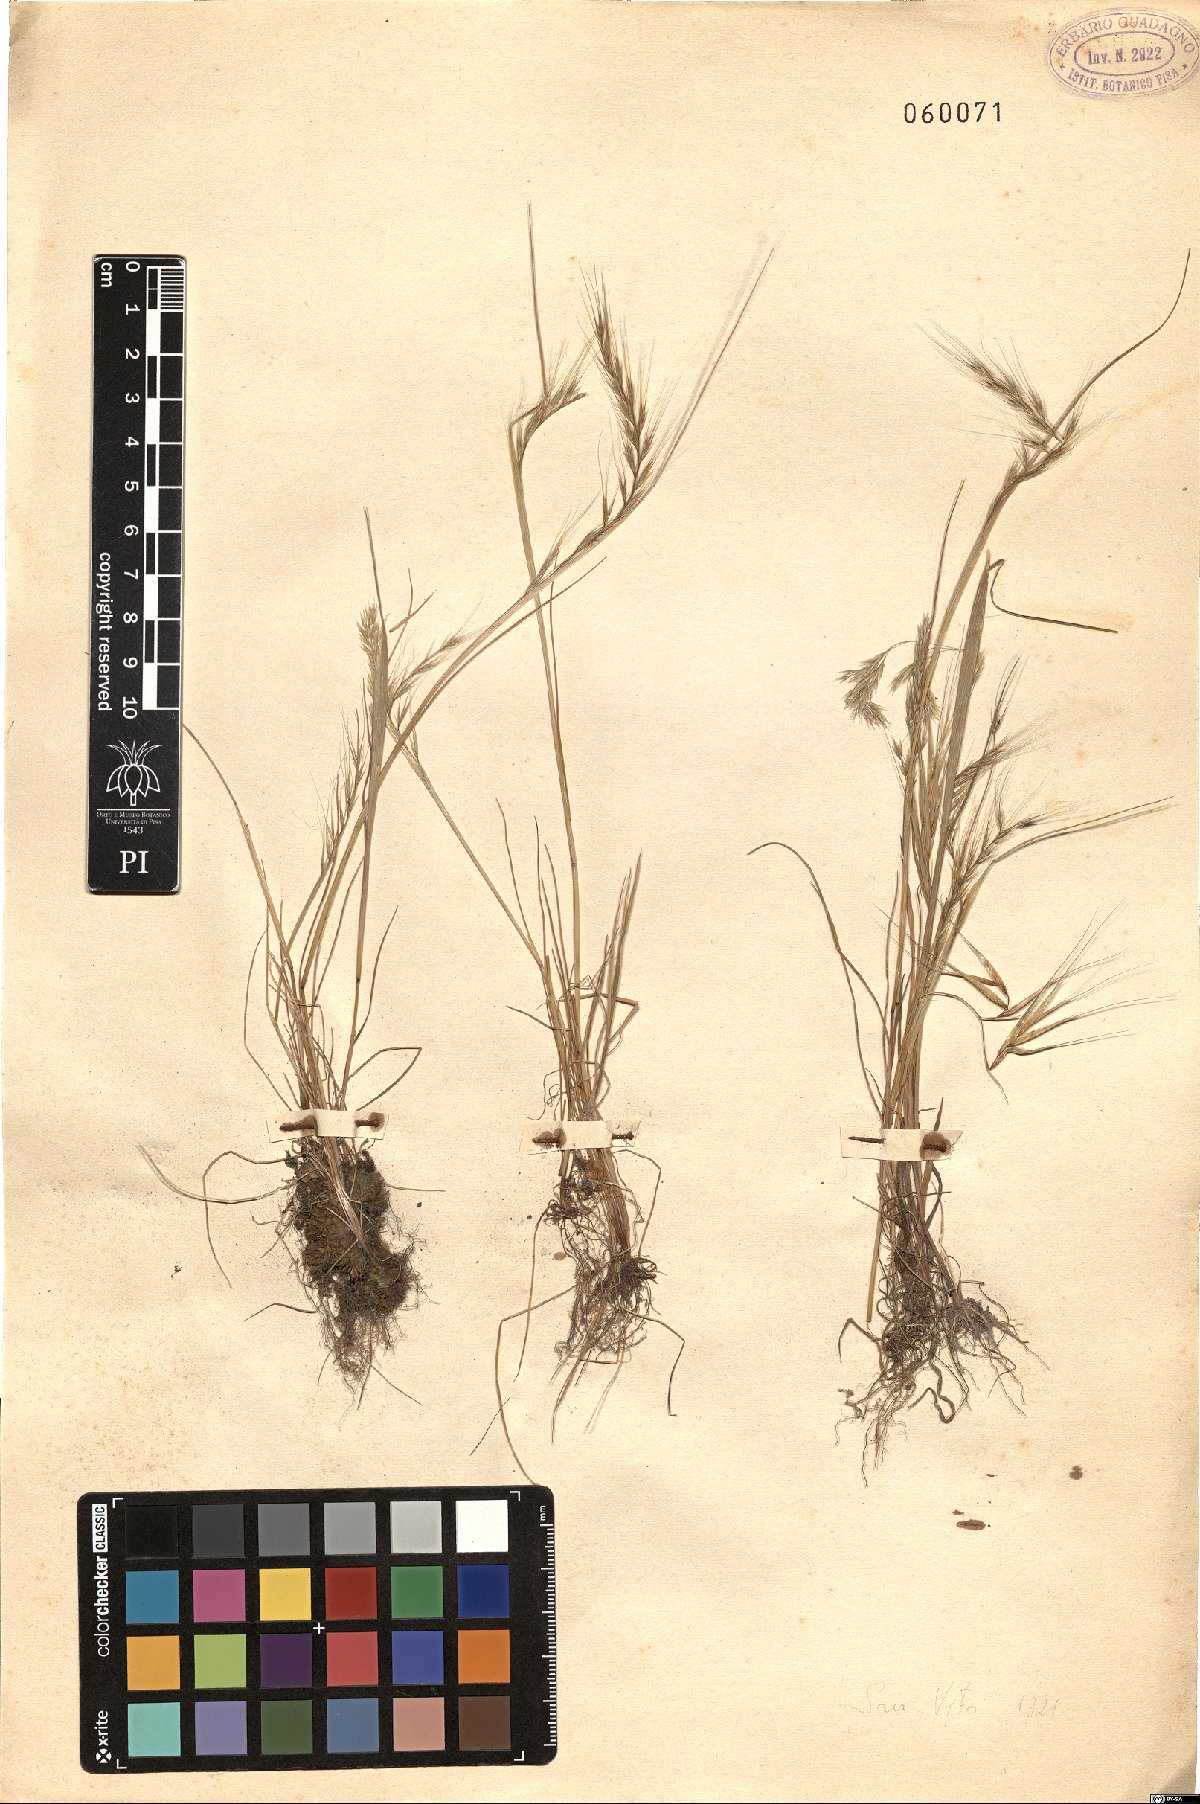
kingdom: Plantae
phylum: Tracheophyta
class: Liliopsida
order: Poales
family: Poaceae
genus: Festuca
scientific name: Festuca
